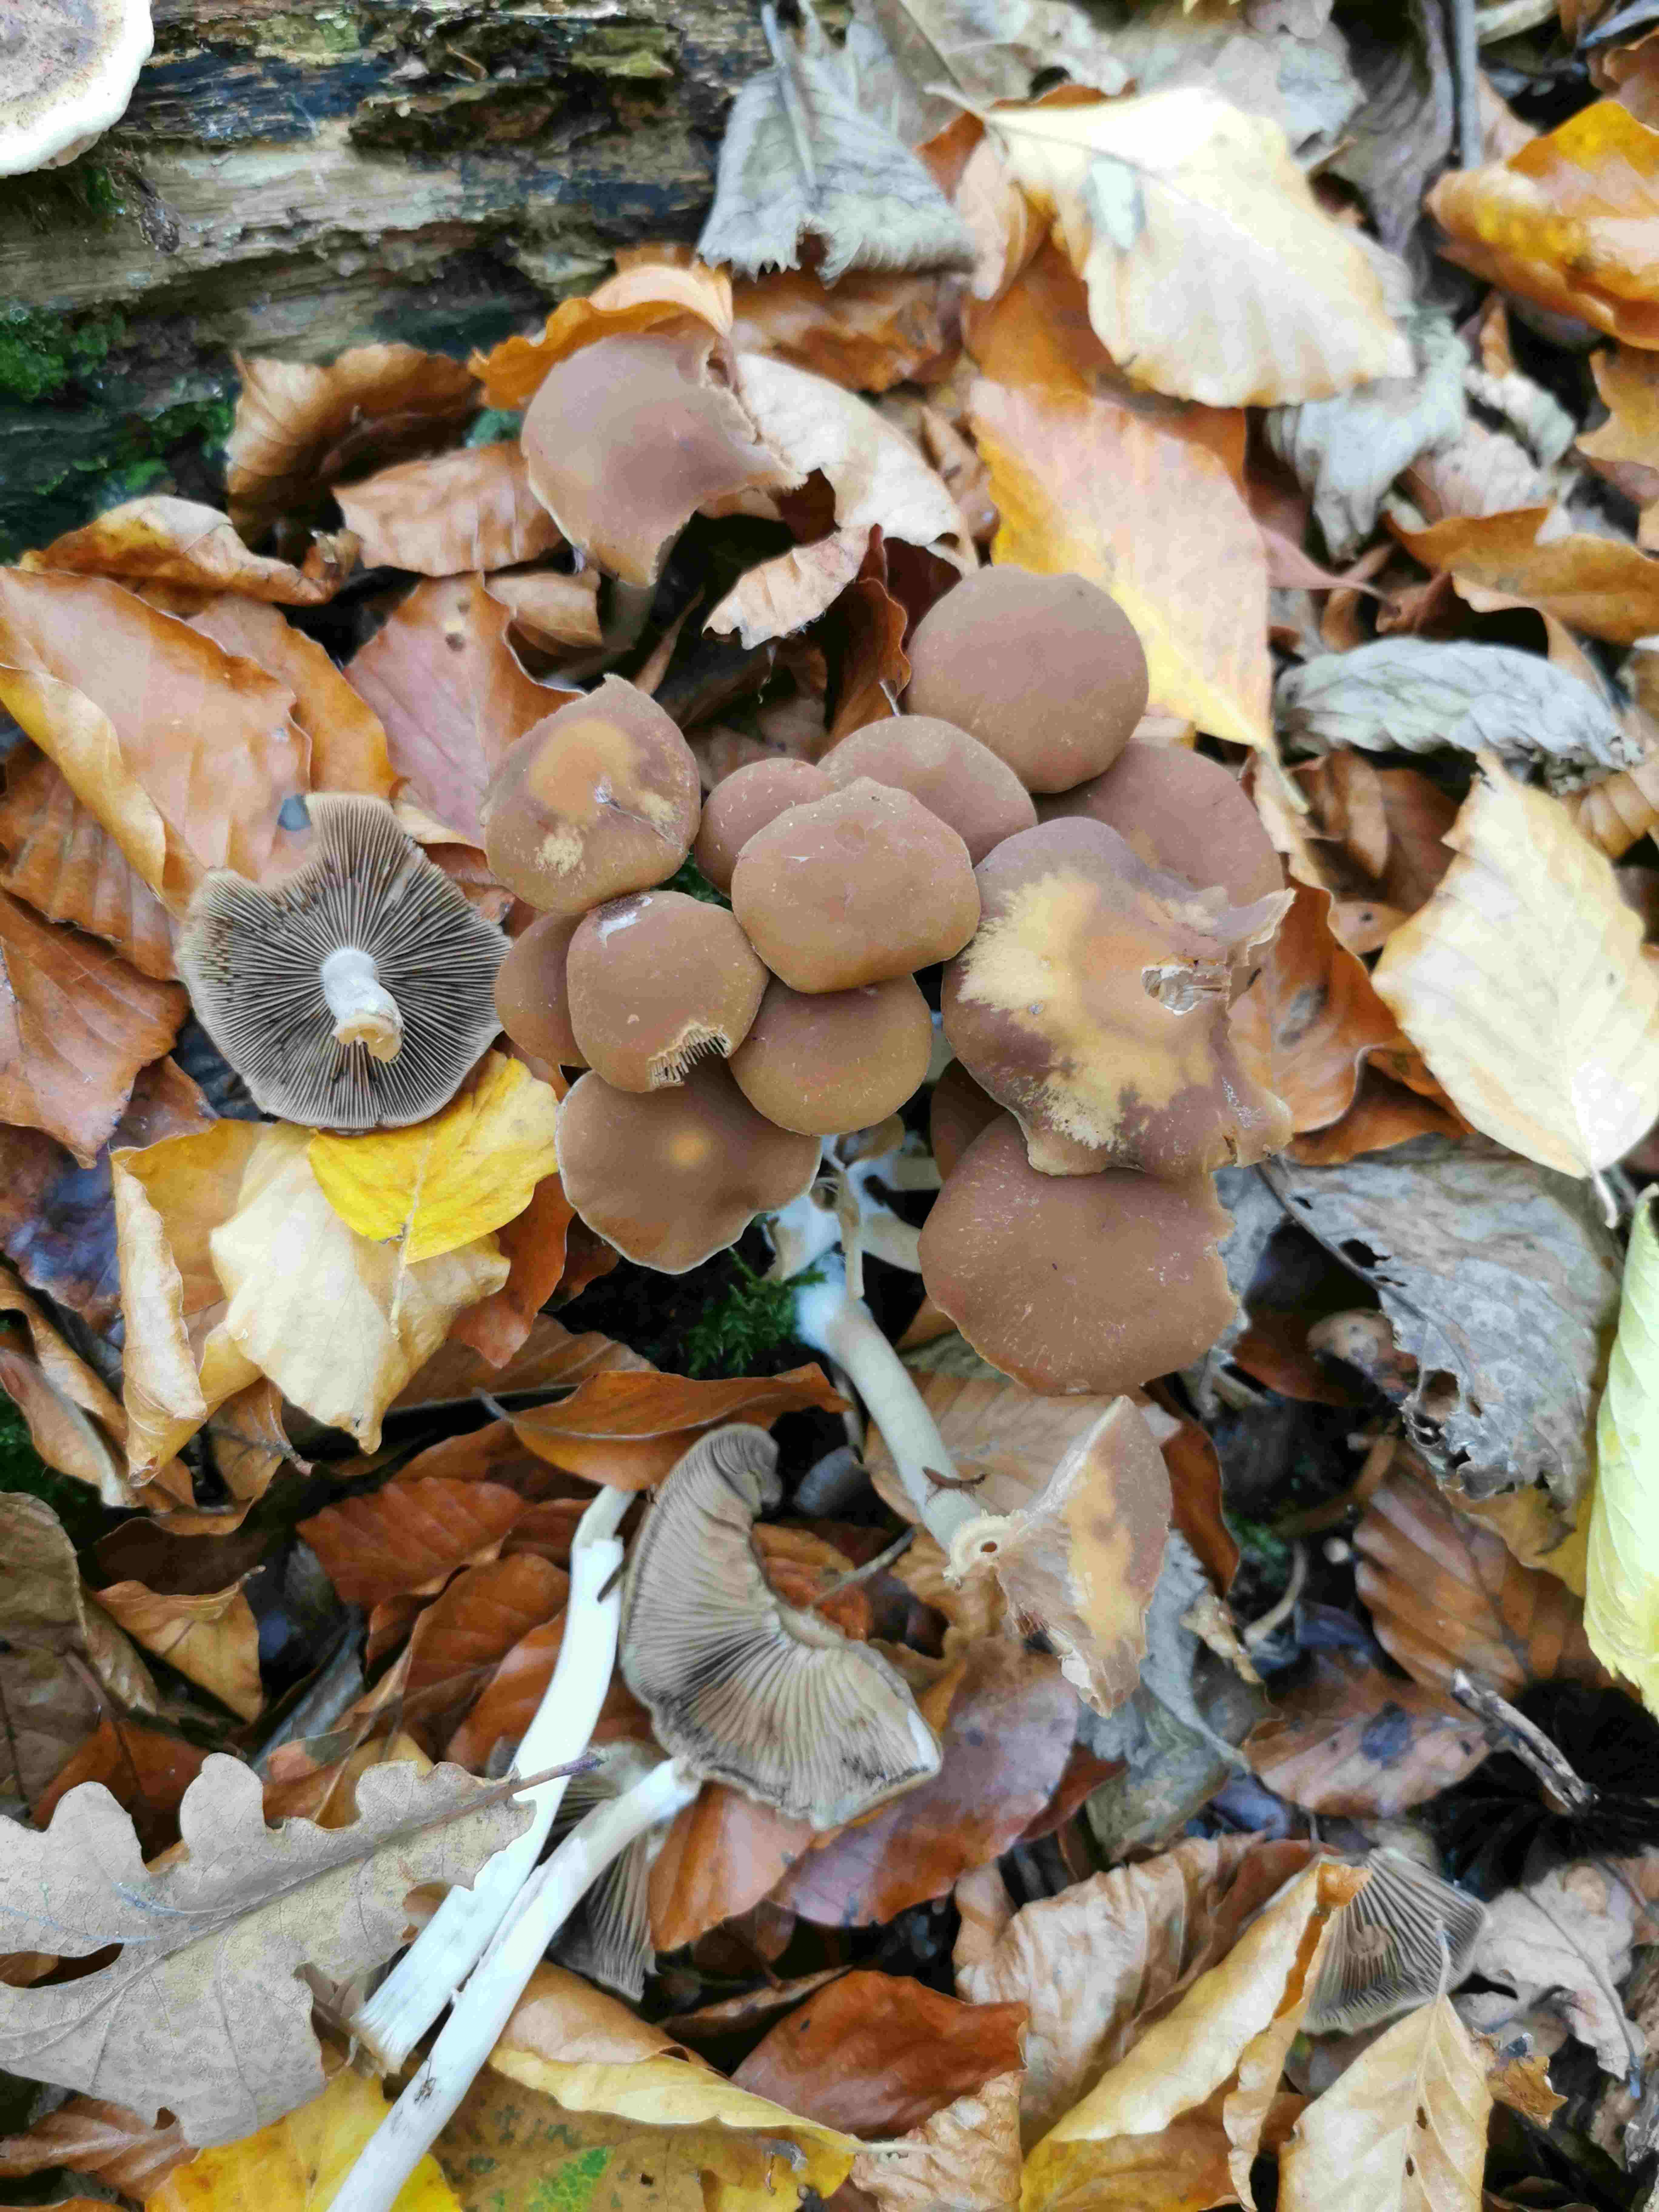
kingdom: Fungi
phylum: Basidiomycota
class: Agaricomycetes
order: Agaricales
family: Psathyrellaceae
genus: Psathyrella
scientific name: Psathyrella piluliformis
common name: lysstokket mørkhat
